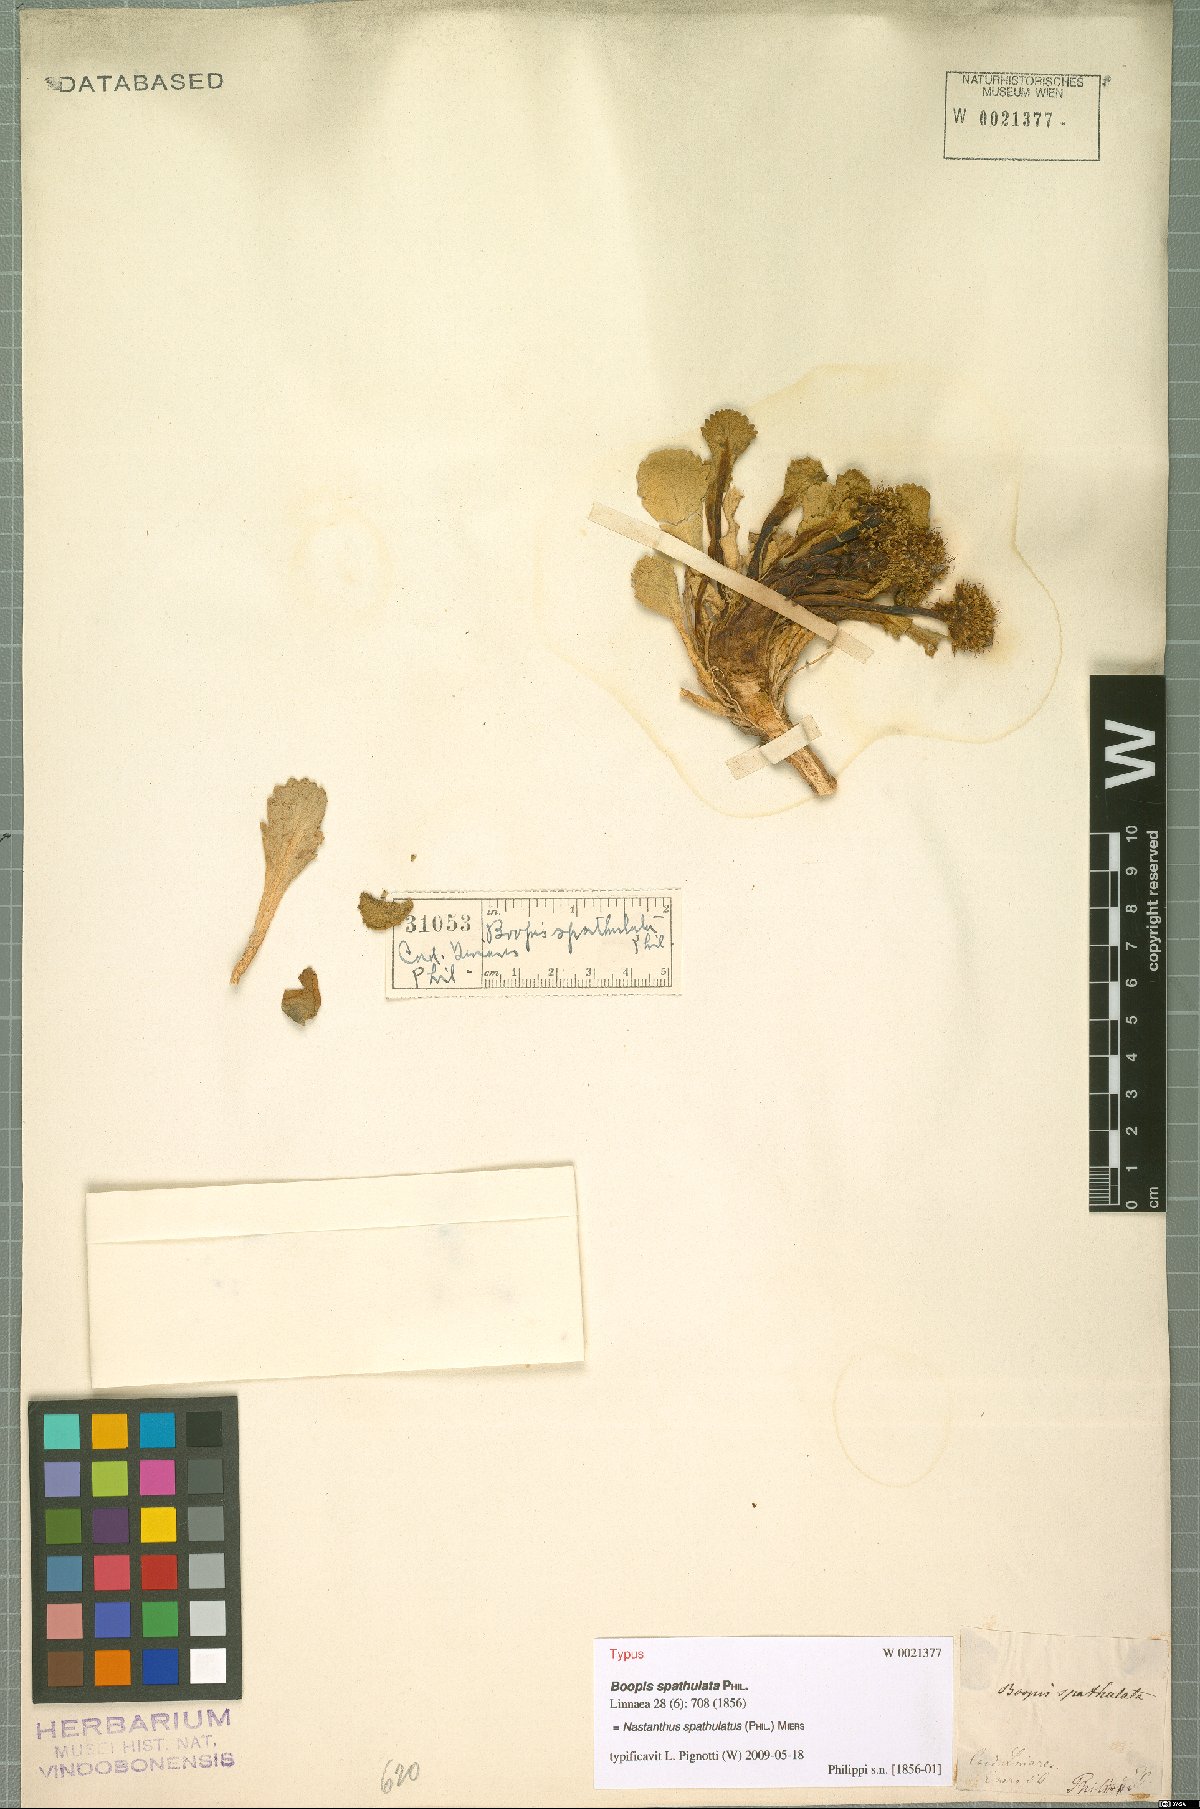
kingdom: Plantae
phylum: Tracheophyta
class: Magnoliopsida
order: Asterales
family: Calyceraceae
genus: Gamocarpha
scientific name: Gamocarpha scapigera
